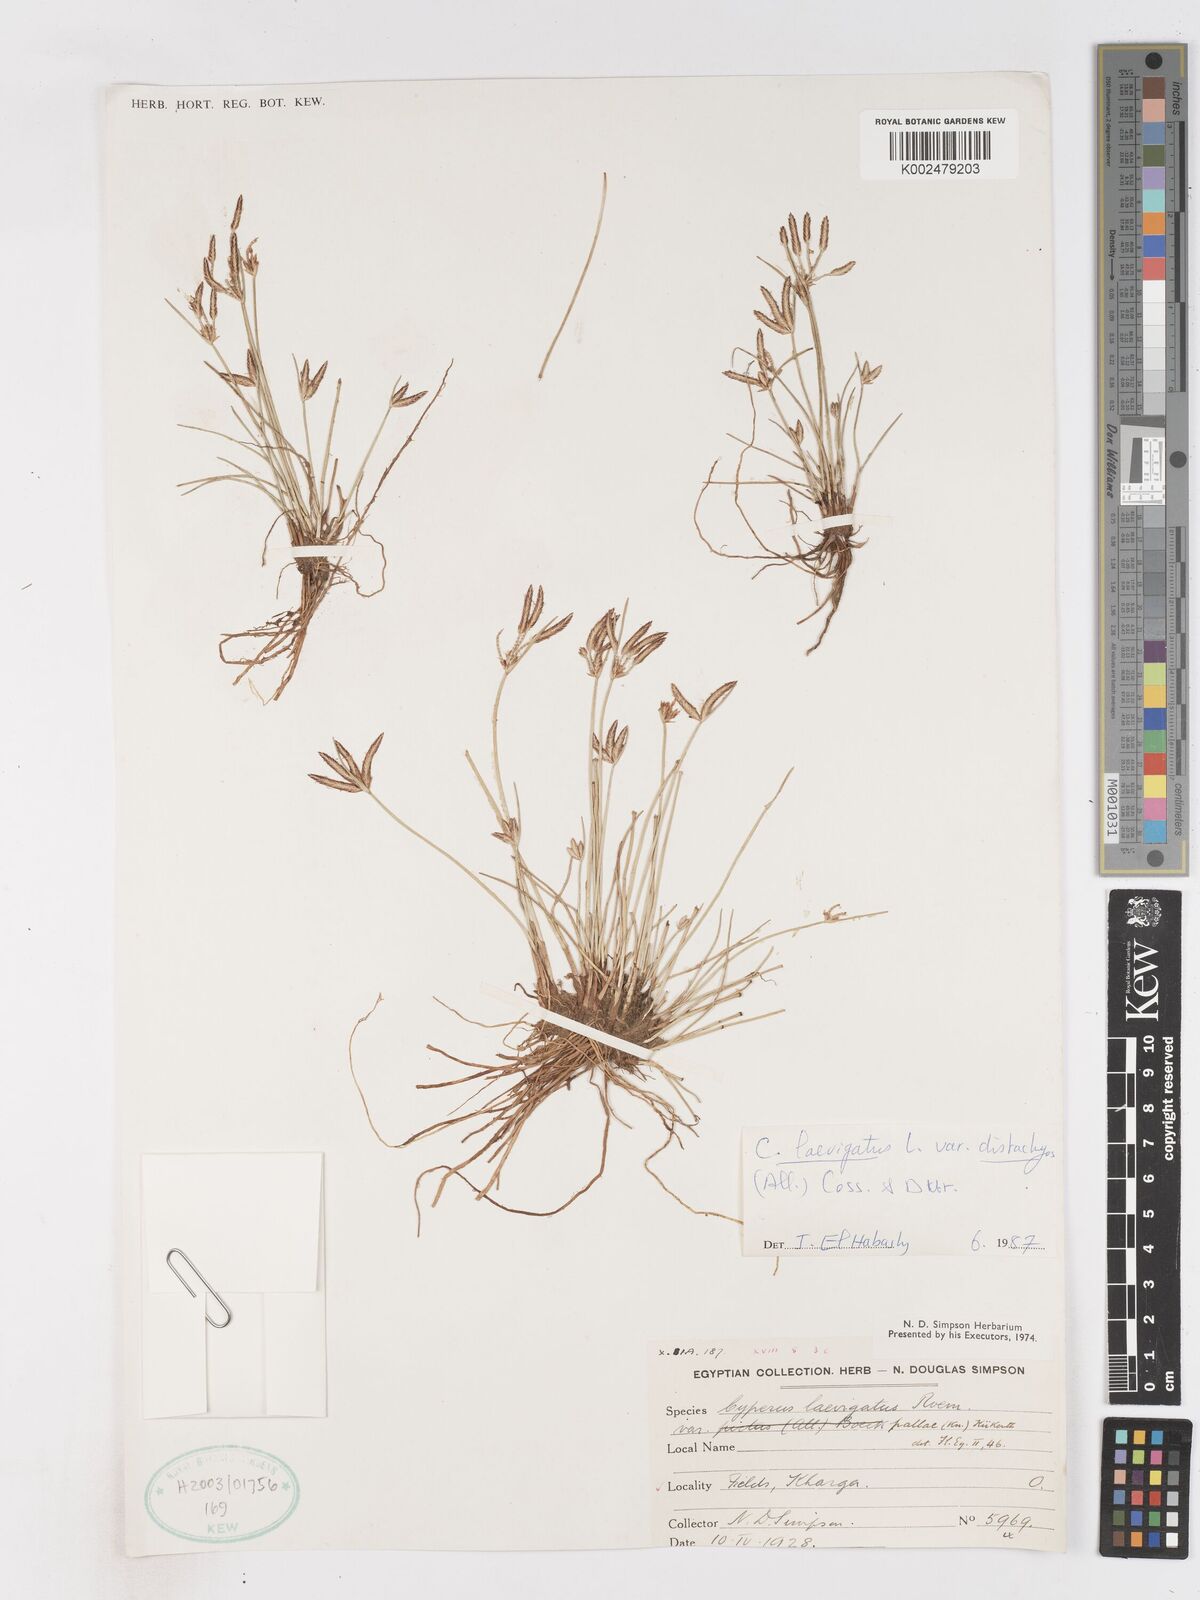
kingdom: Plantae
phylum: Tracheophyta
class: Liliopsida
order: Poales
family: Cyperaceae
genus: Cyperus
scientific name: Cyperus laevigatus
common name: Smooth flat sedge
